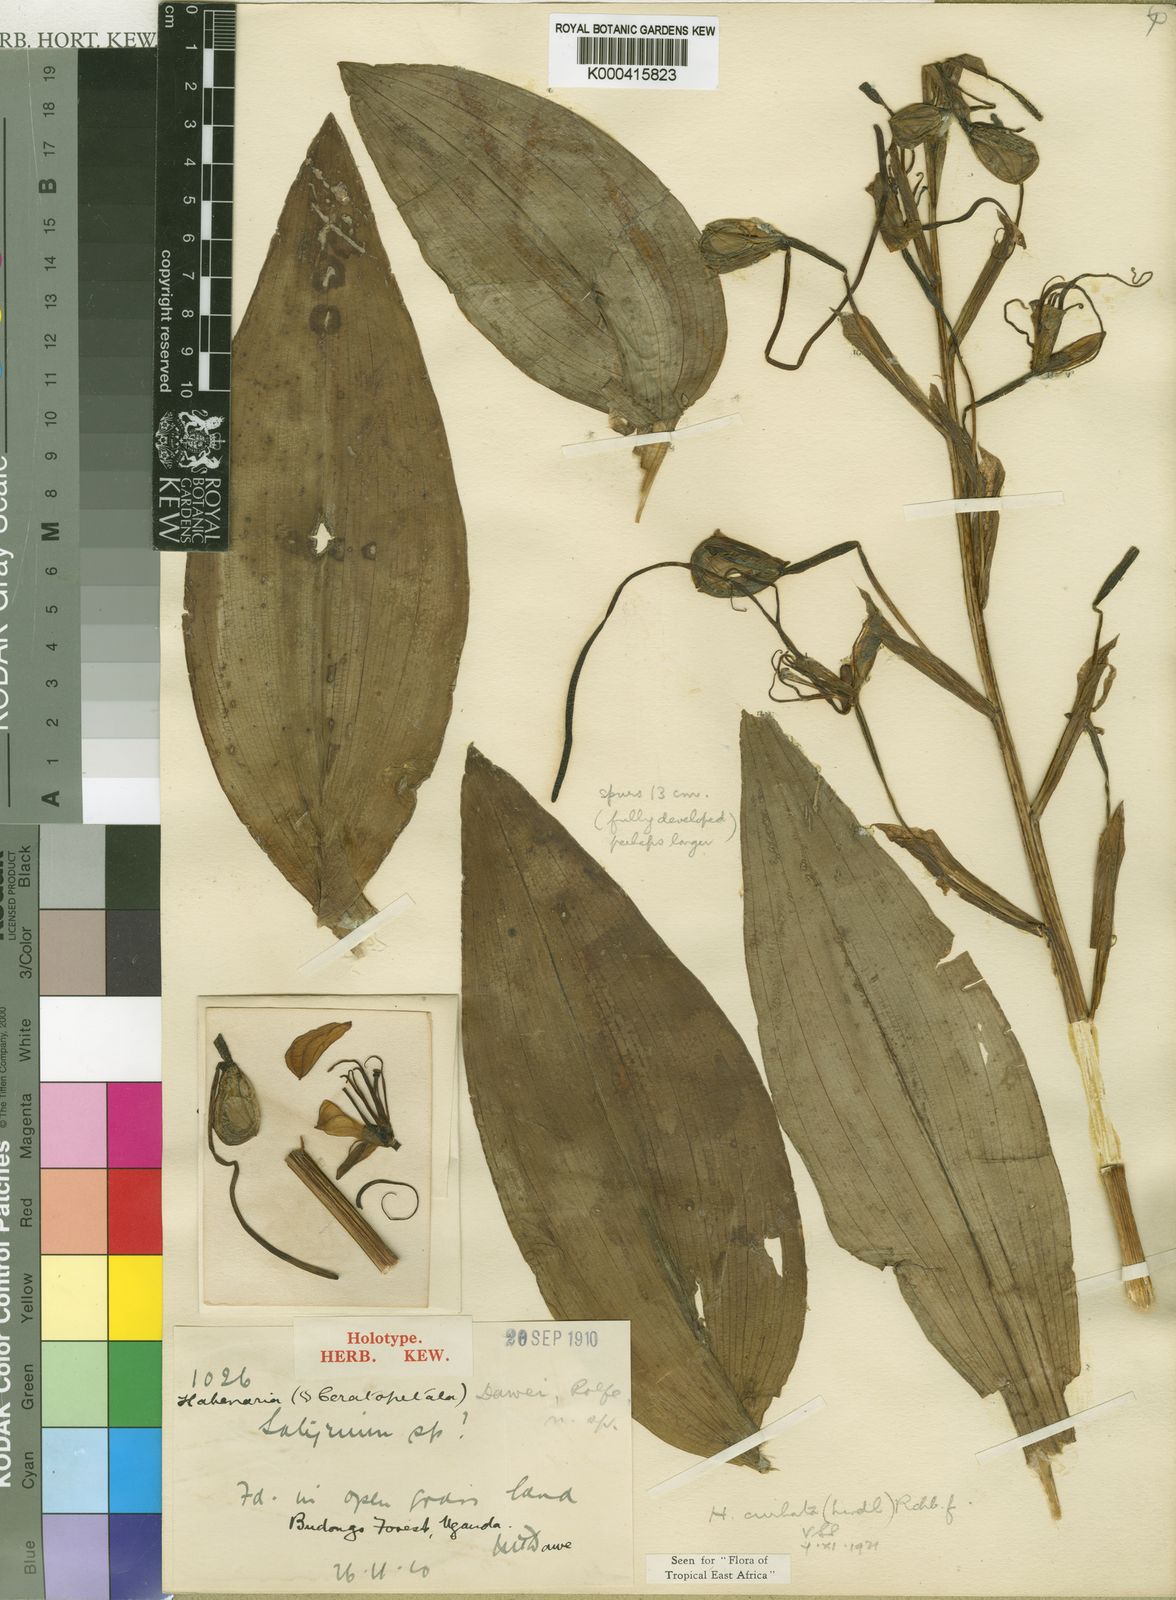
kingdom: Plantae
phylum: Tracheophyta
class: Liliopsida
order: Asparagales
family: Orchidaceae
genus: Habenaria
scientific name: Habenaria cirrhata
